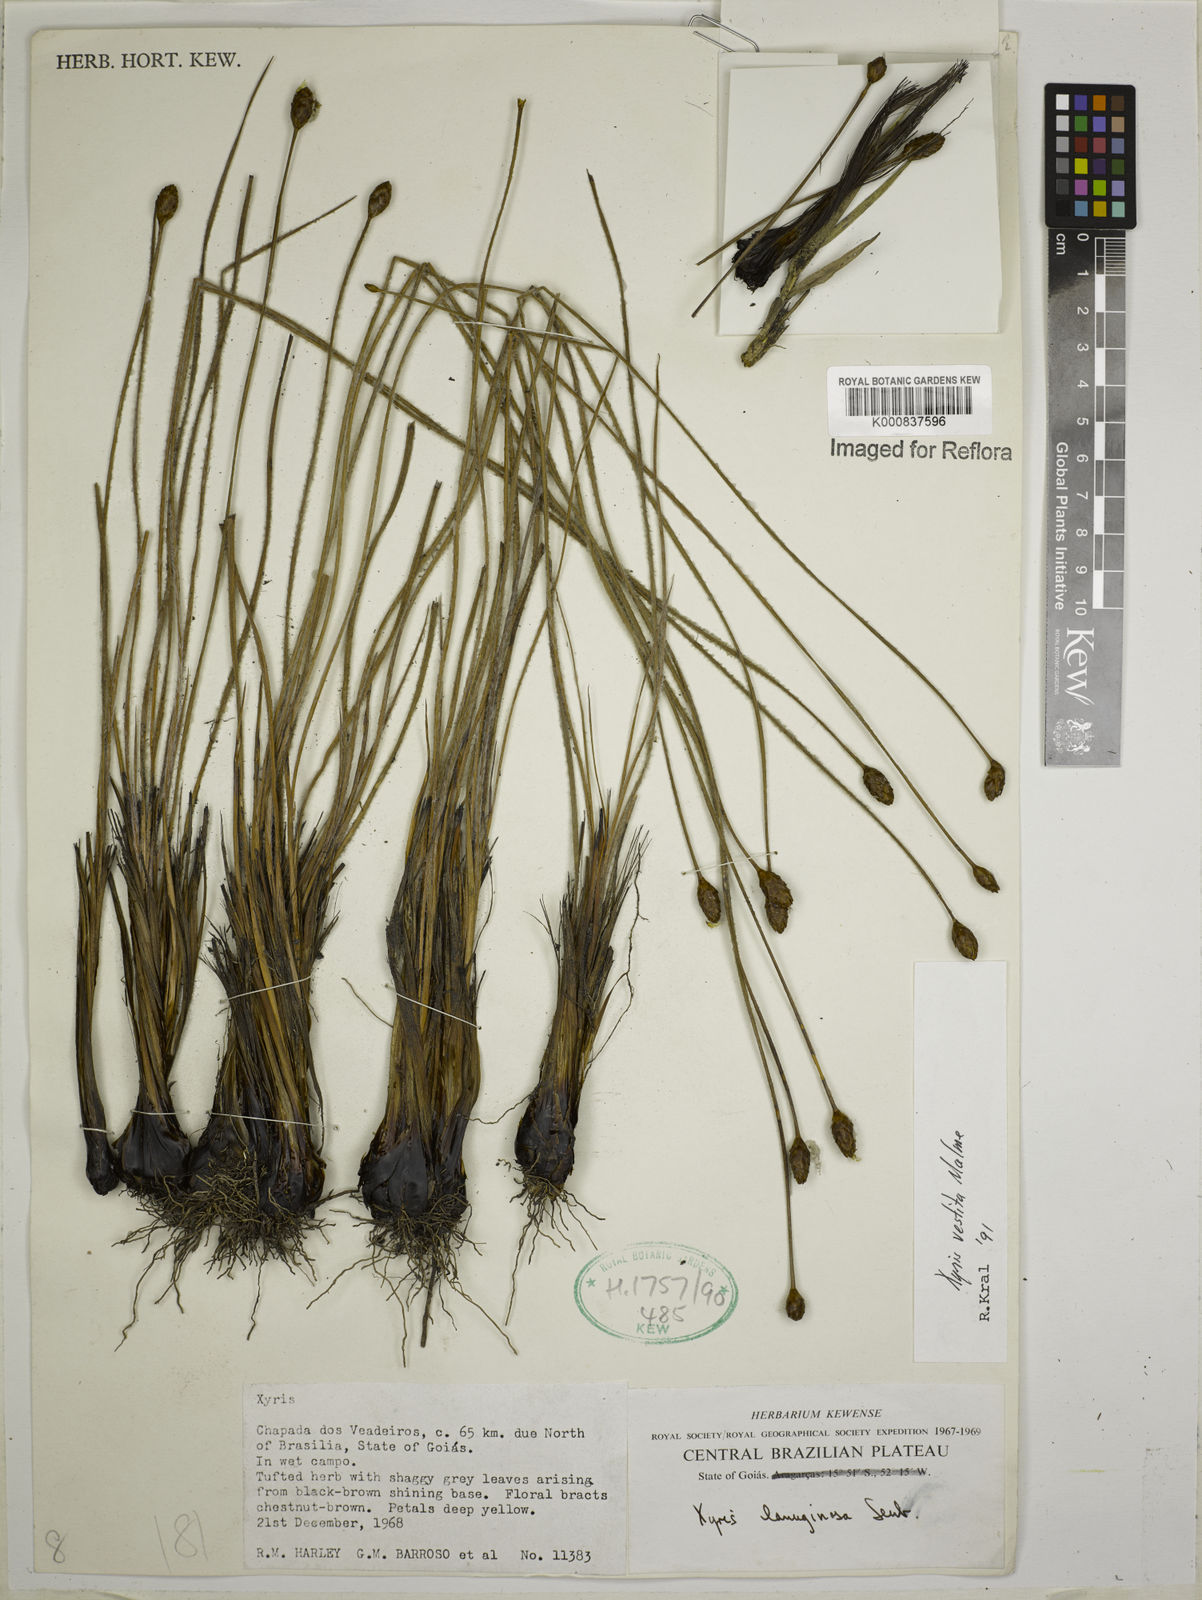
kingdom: Plantae
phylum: Tracheophyta
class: Liliopsida
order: Poales
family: Xyridaceae
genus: Xyris
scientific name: Xyris vestita
